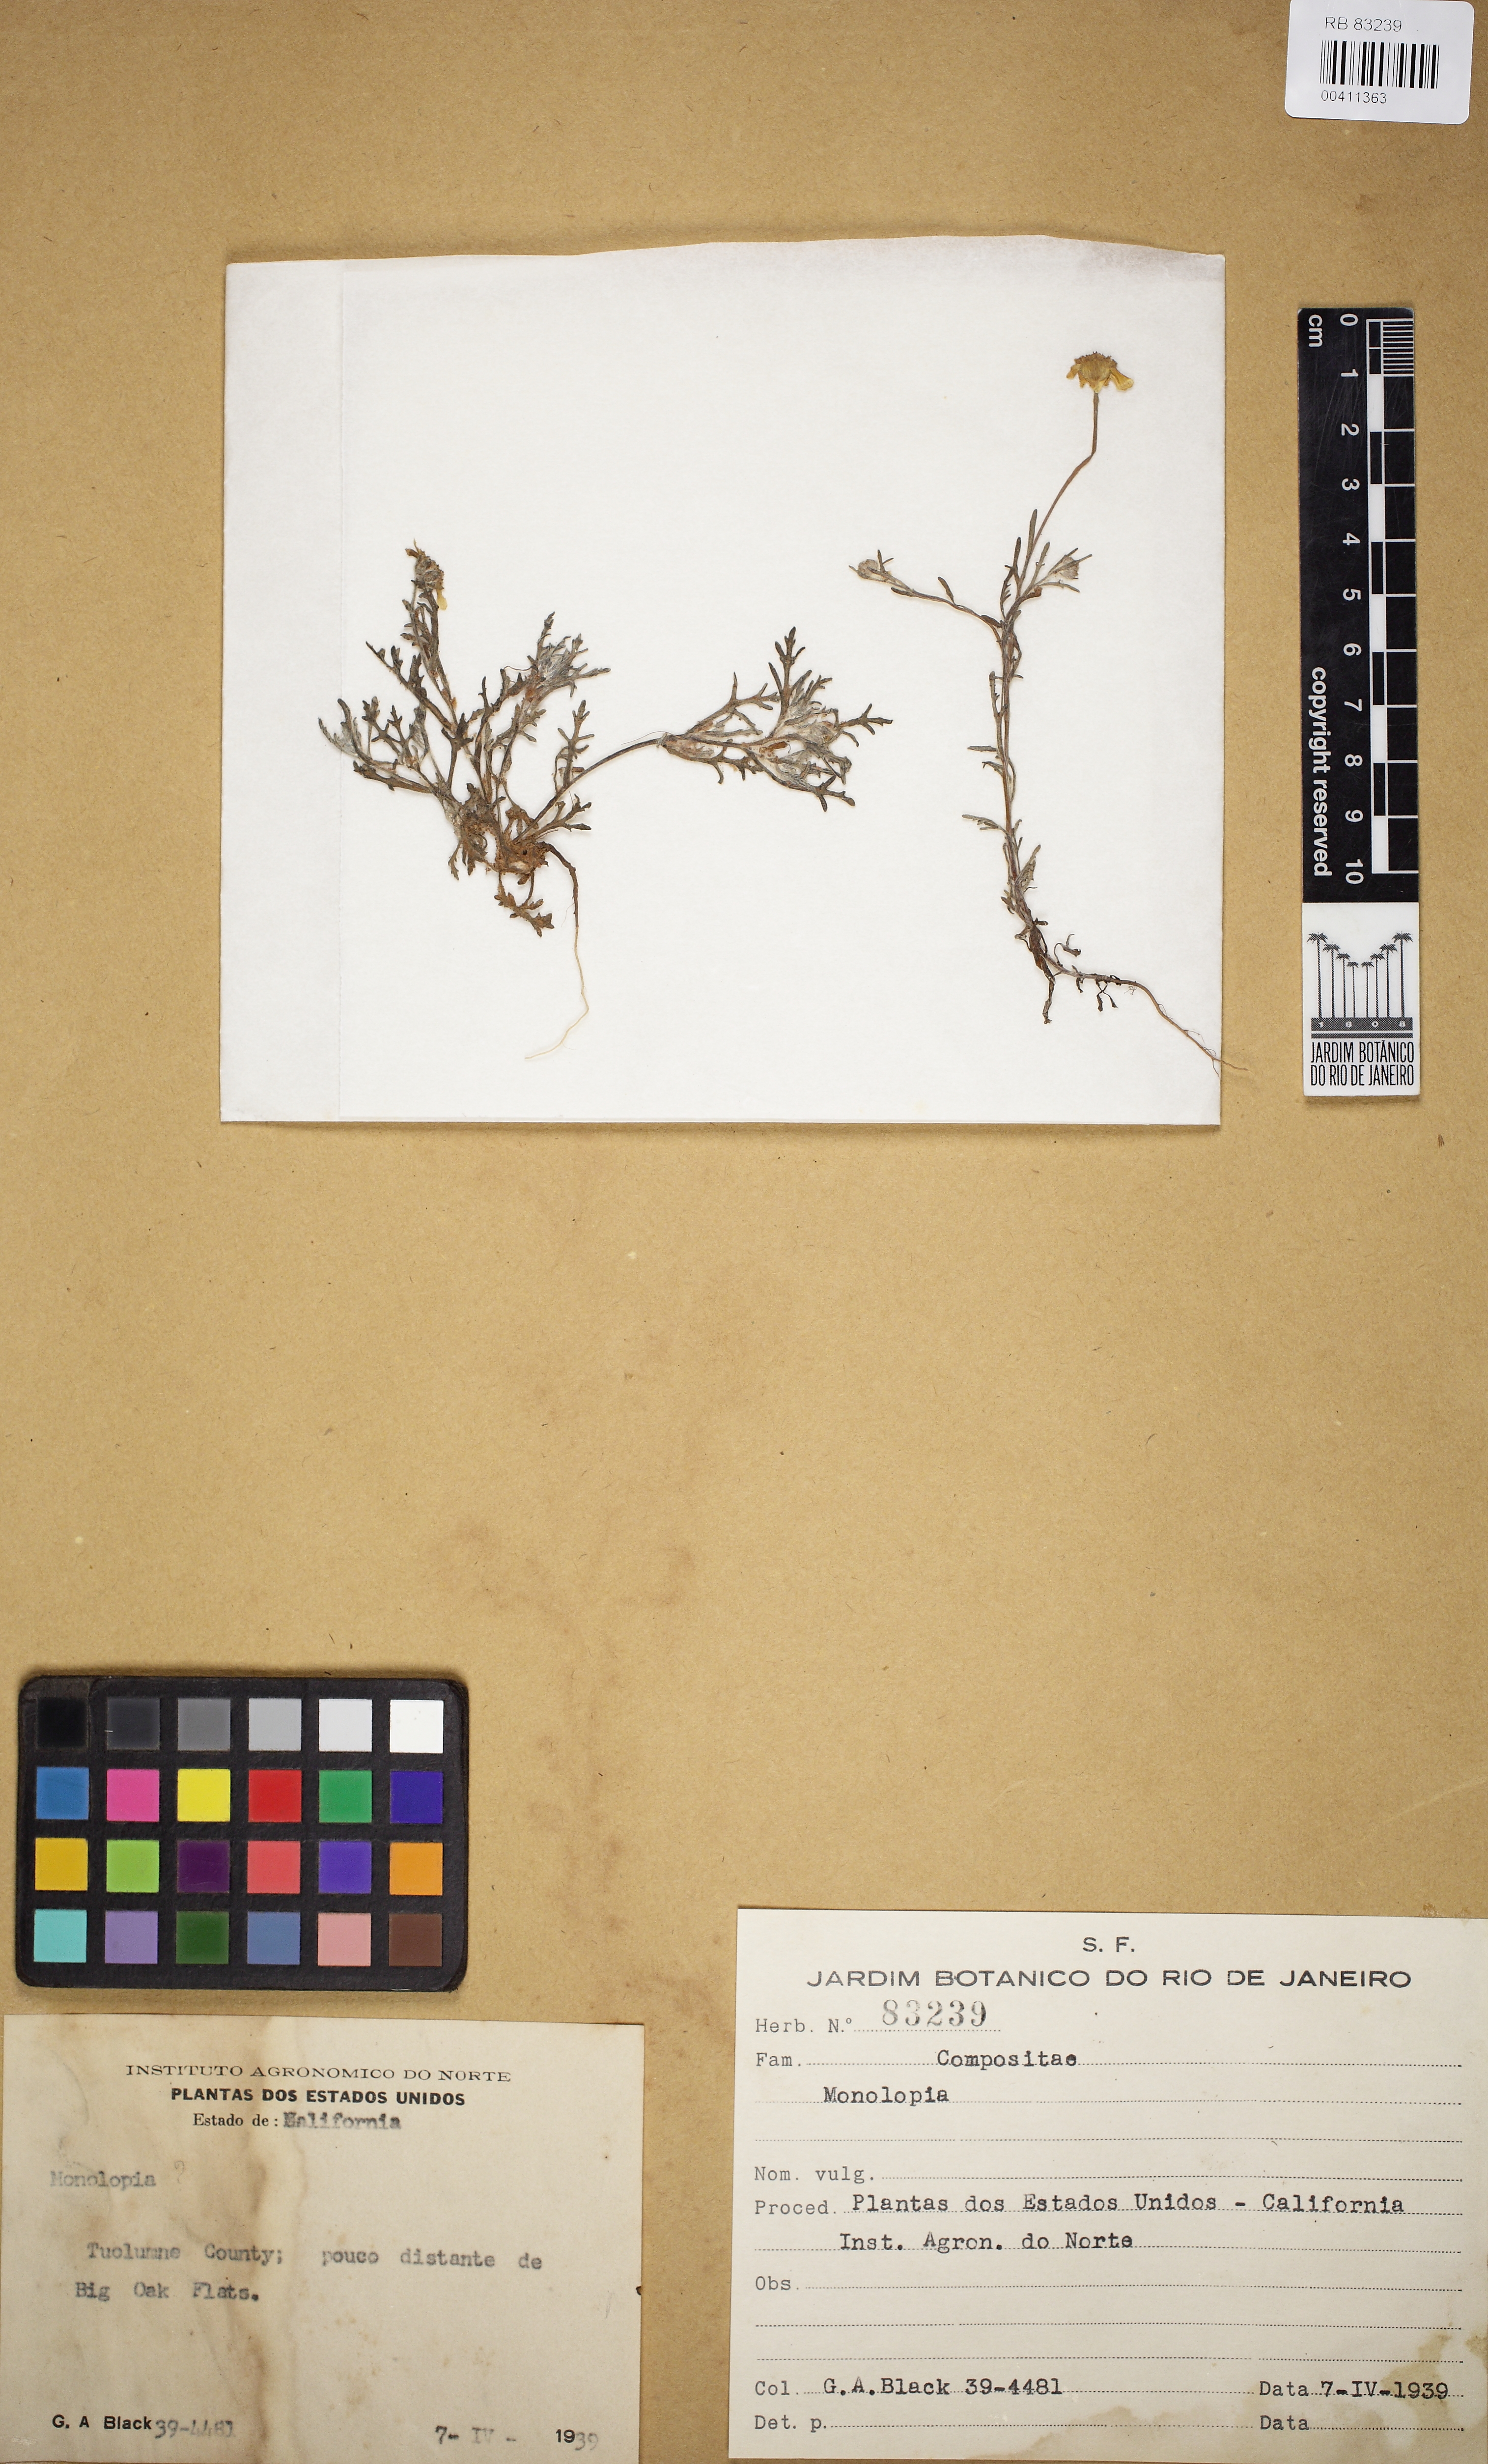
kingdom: Plantae
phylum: Tracheophyta
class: Magnoliopsida
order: Asterales
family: Asteraceae
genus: Monolopia
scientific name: Monolopia
